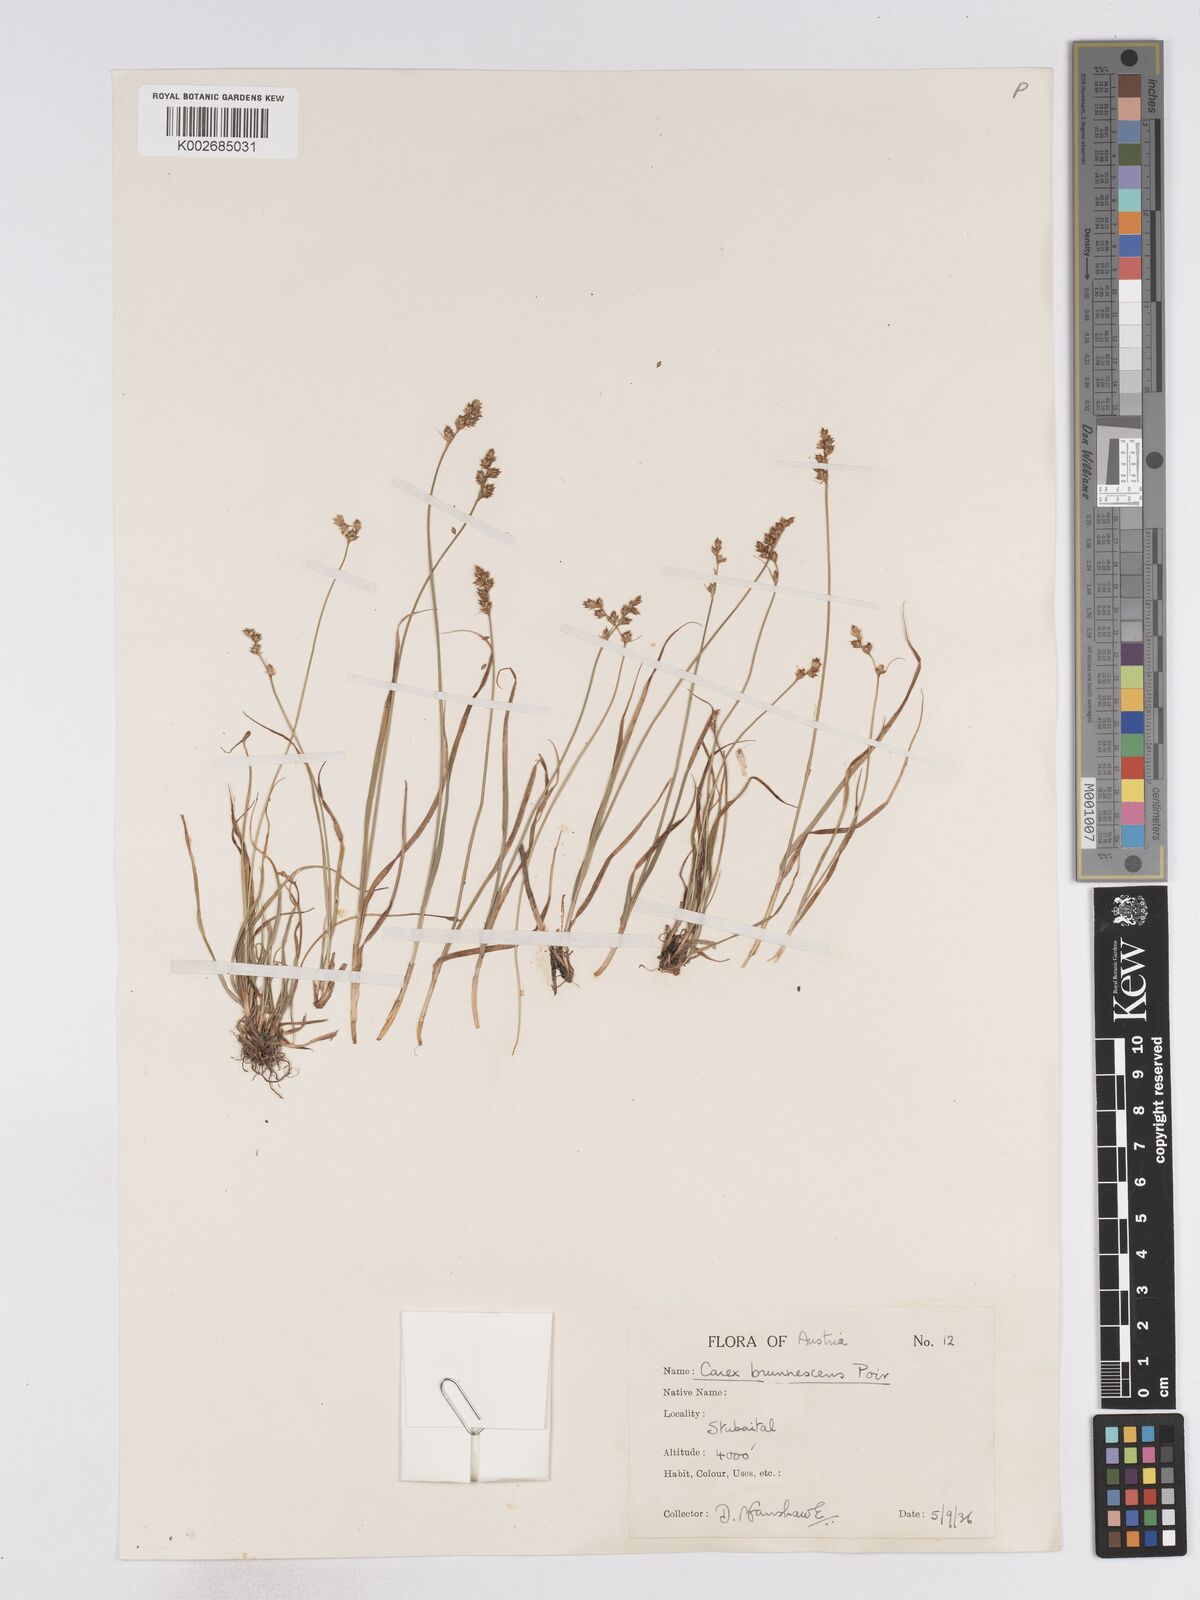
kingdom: Plantae
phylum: Tracheophyta
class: Liliopsida
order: Poales
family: Cyperaceae
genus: Carex
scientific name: Carex brunnescens
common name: Brown sedge
